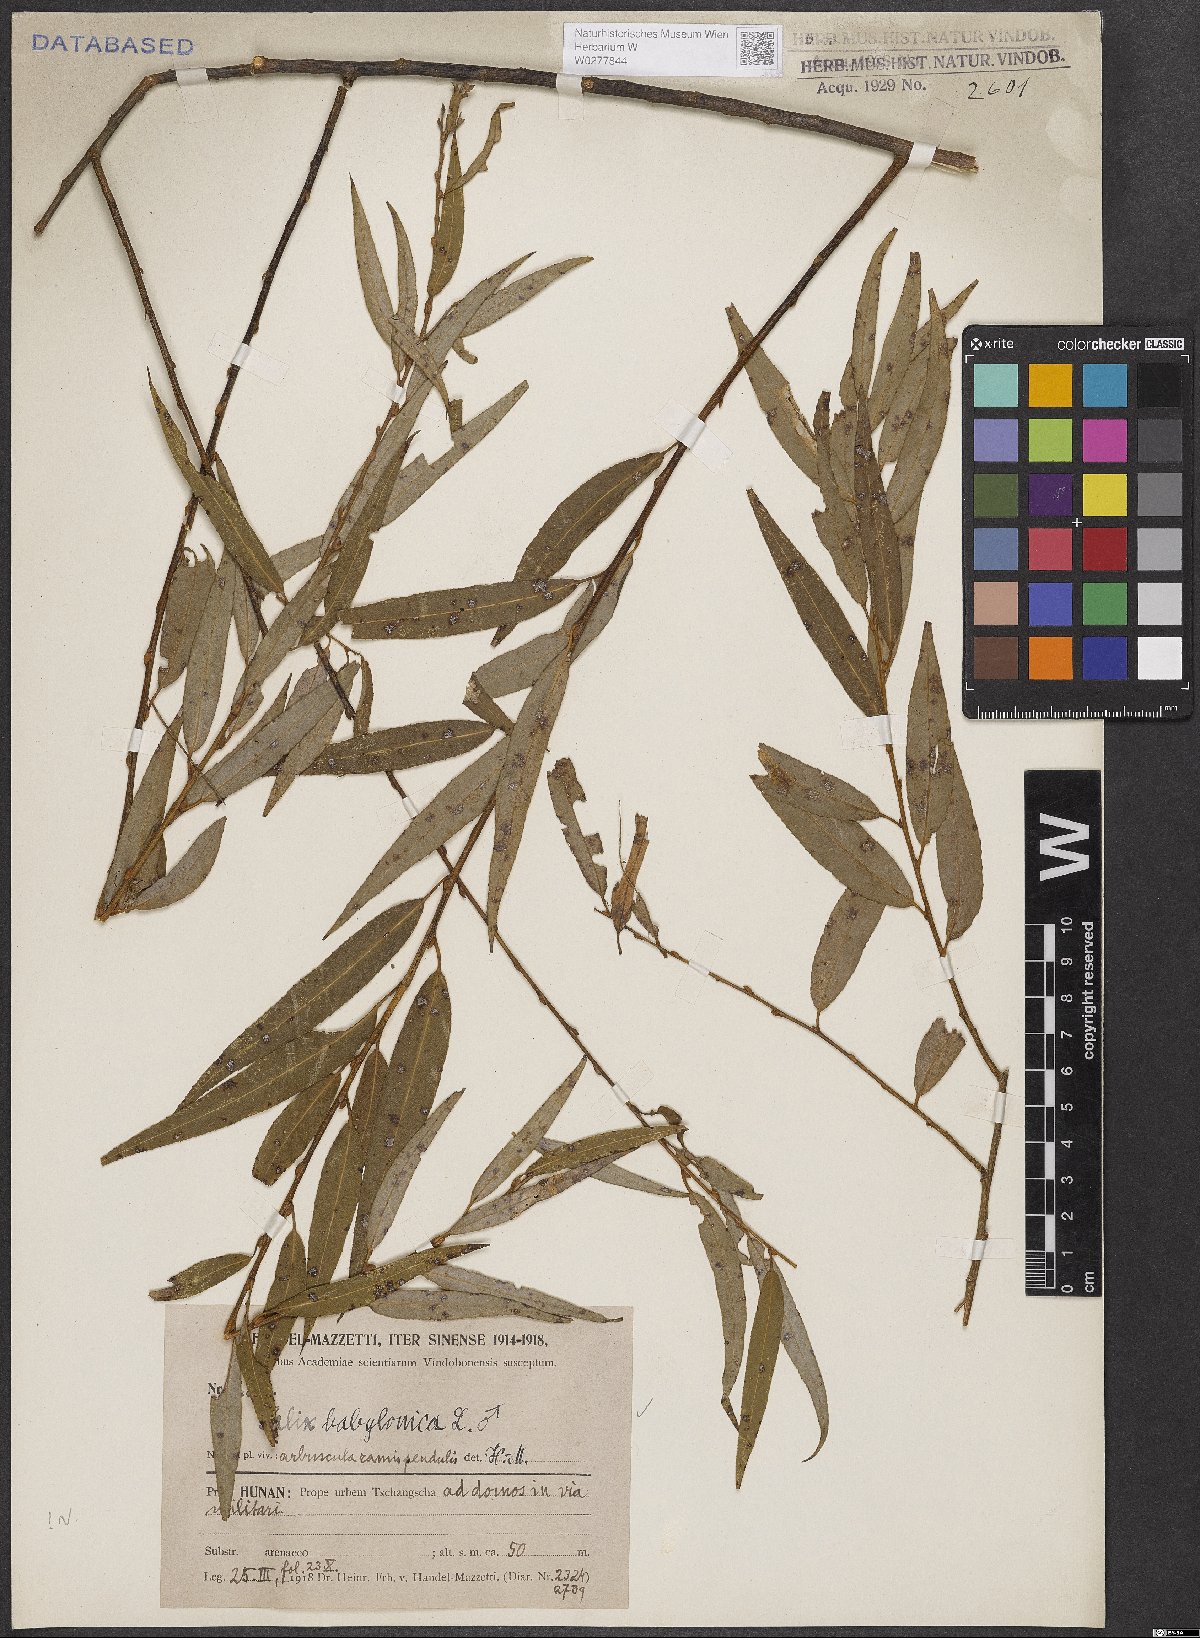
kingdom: Plantae
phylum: Tracheophyta
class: Magnoliopsida
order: Malpighiales
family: Salicaceae
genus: Salix
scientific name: Salix babylonica
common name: Weeping willow
